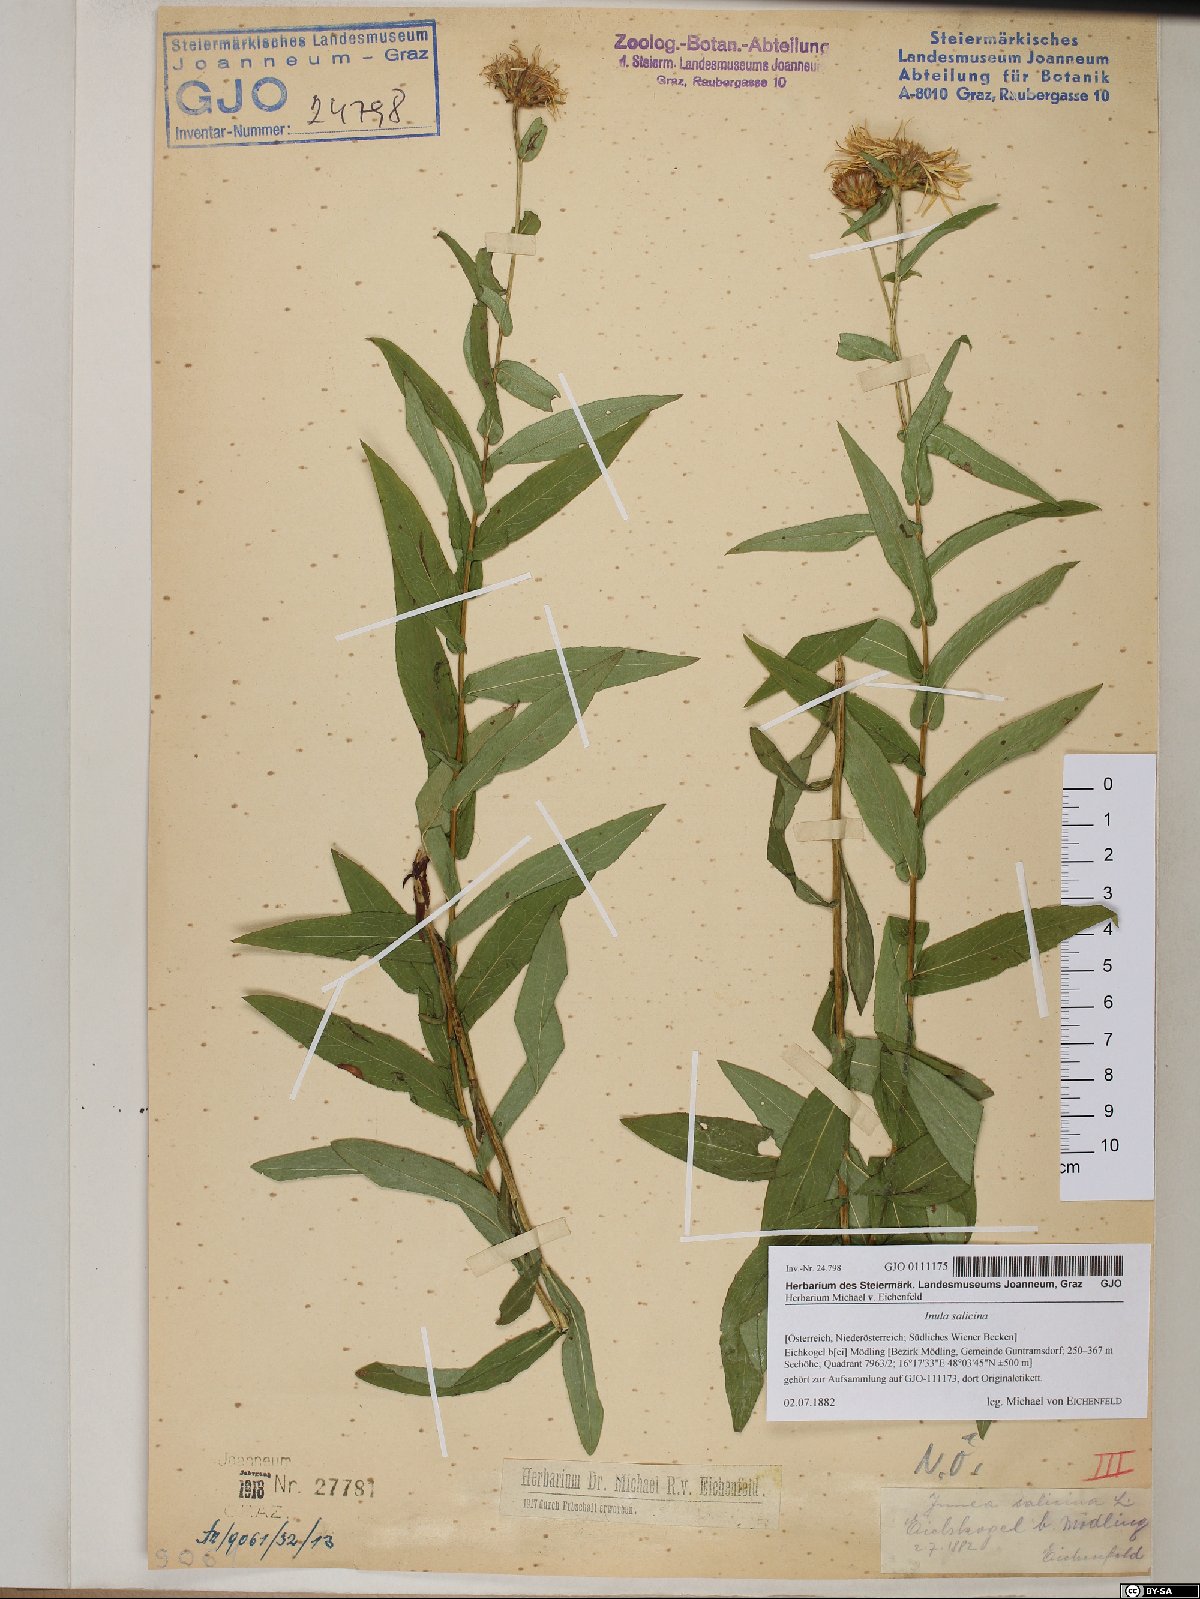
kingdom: Plantae
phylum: Tracheophyta
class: Magnoliopsida
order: Asterales
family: Asteraceae
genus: Pentanema
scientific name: Pentanema salicinum
